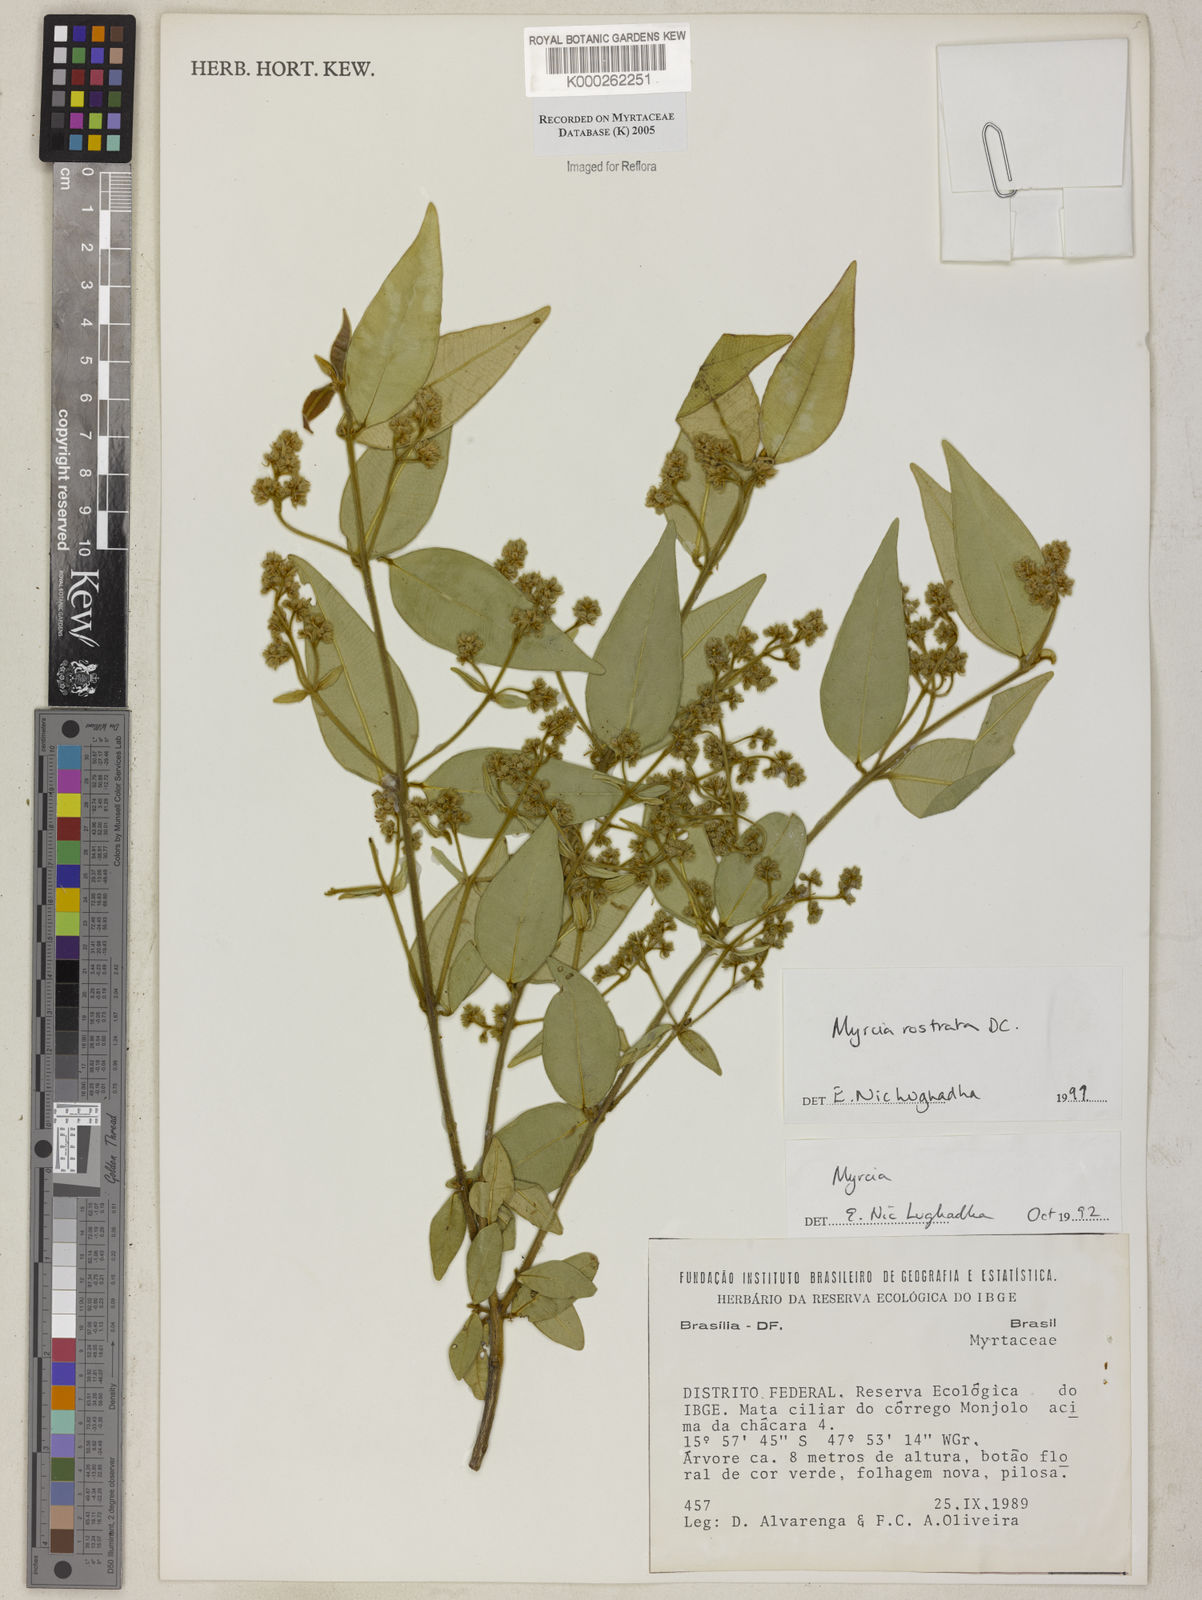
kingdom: Plantae
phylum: Tracheophyta
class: Magnoliopsida
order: Myrtales
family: Myrtaceae
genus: Myrcia
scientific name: Myrcia splendens
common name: Surinam cherry
